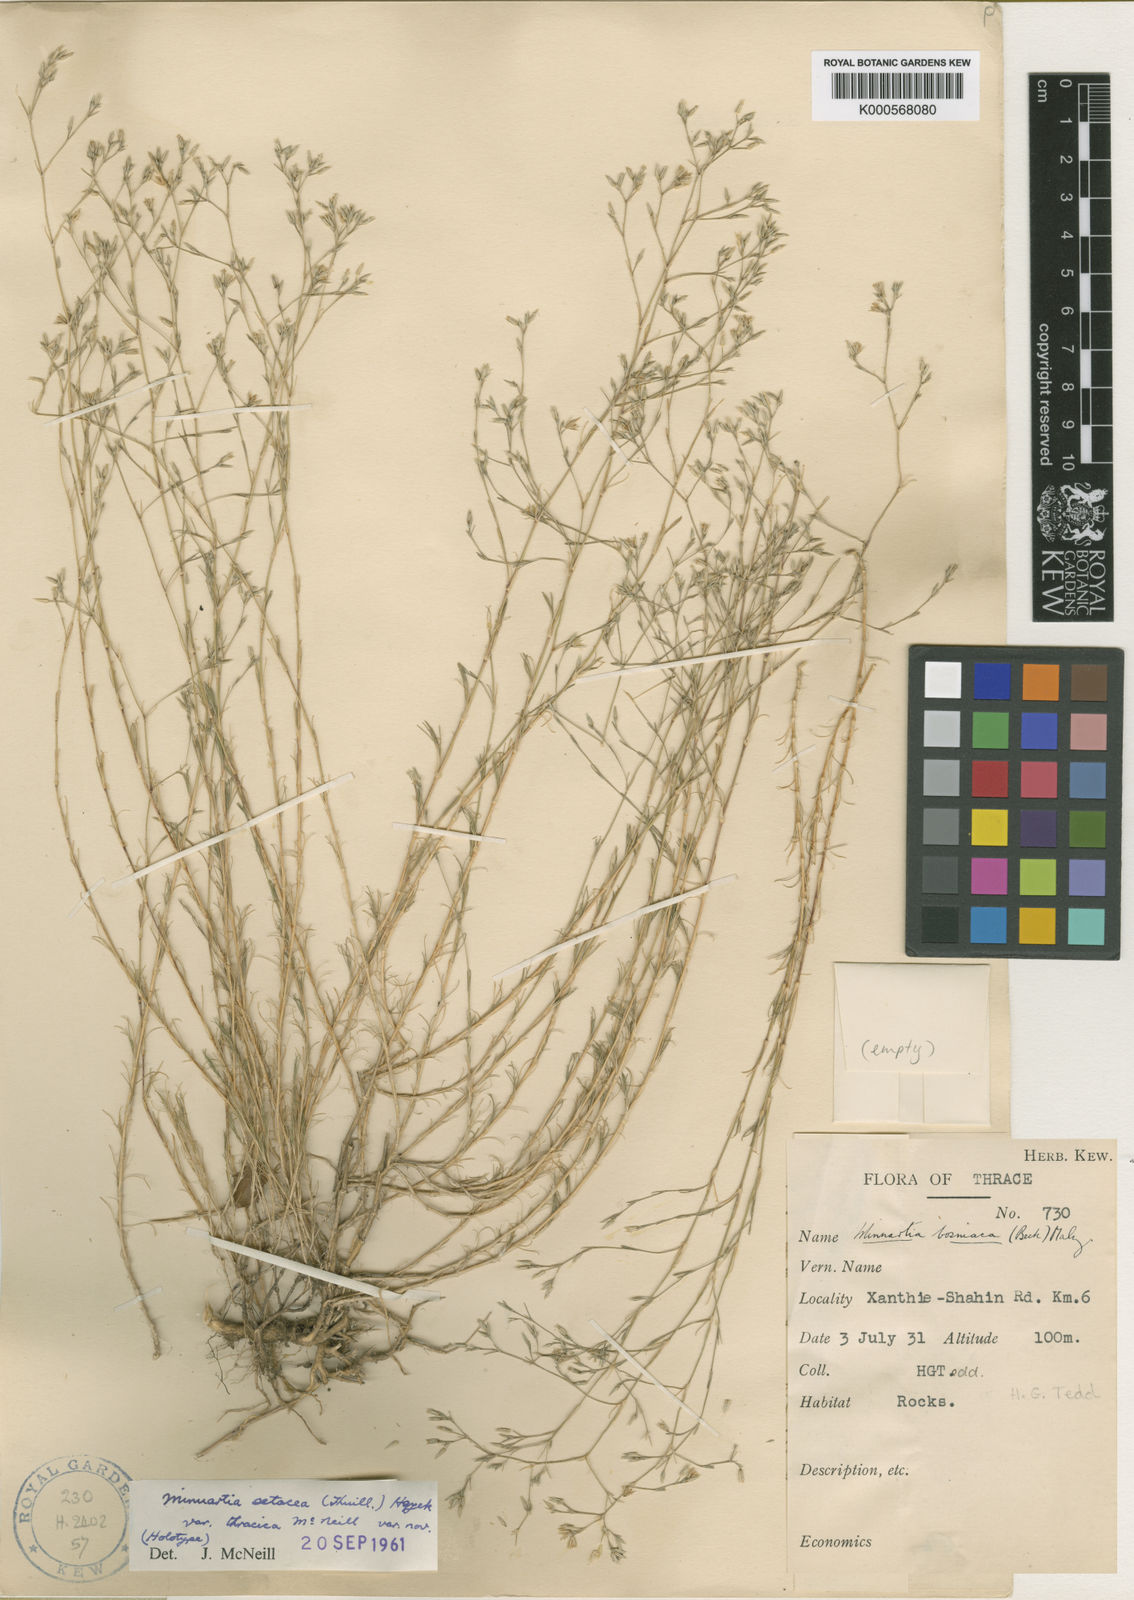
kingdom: Plantae
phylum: Tracheophyta
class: Magnoliopsida
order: Caryophyllales
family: Caryophyllaceae
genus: Minuartia
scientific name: Minuartia setacea
